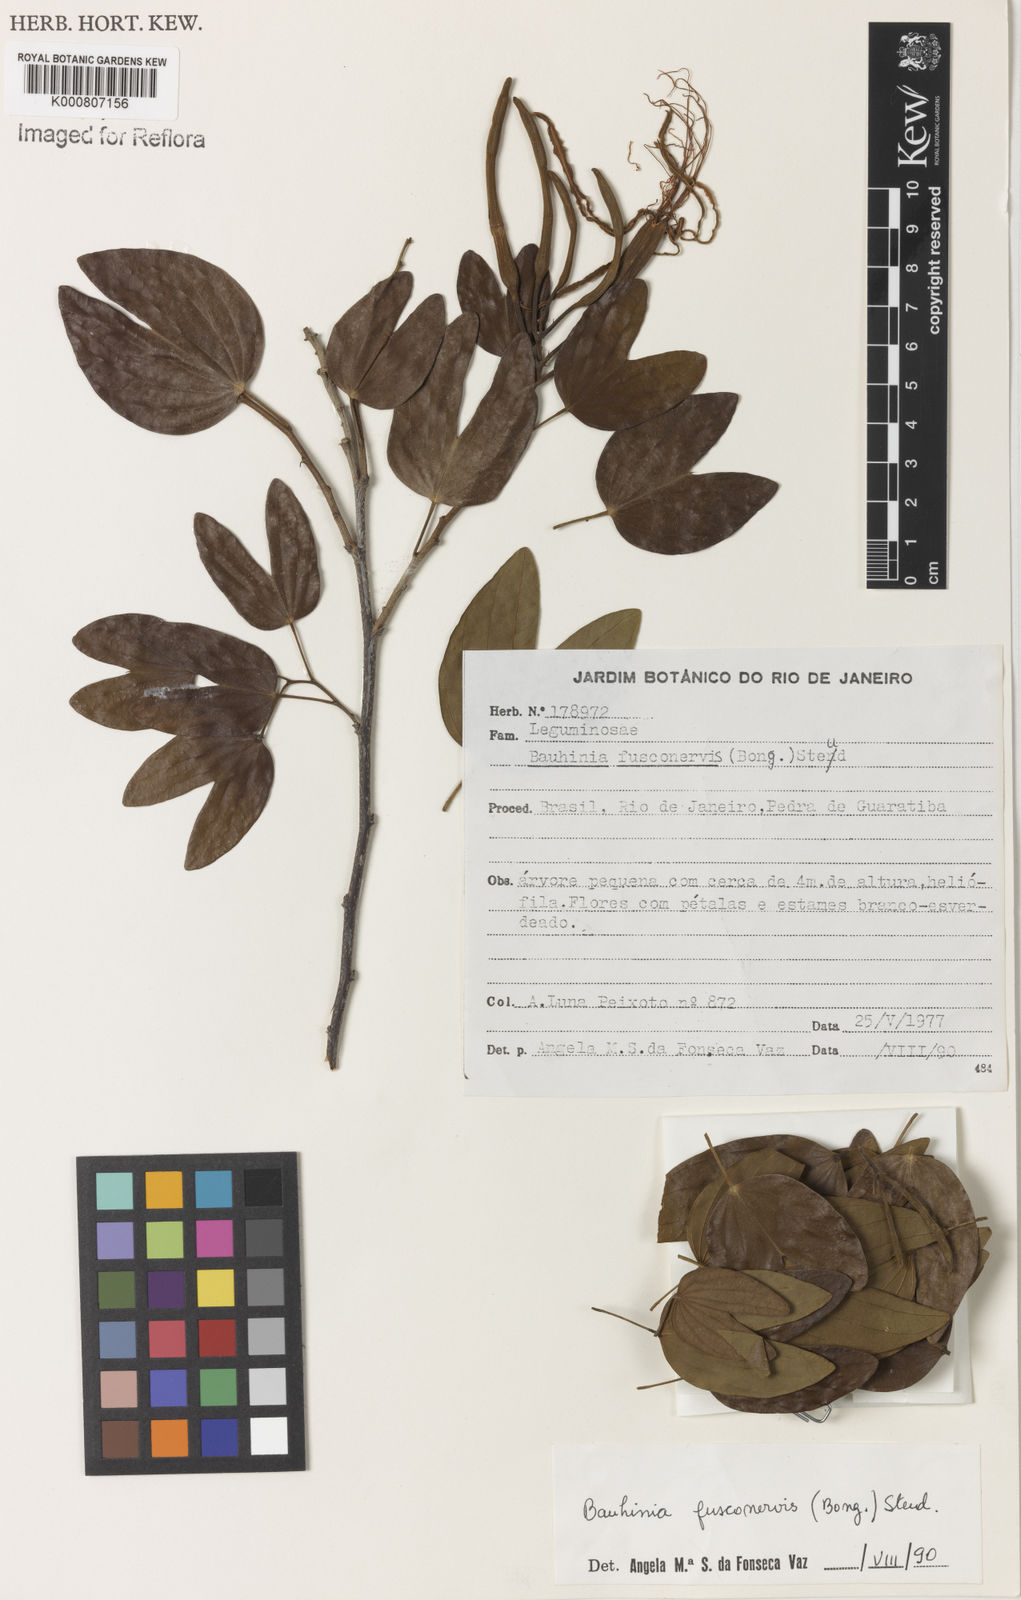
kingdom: Plantae
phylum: Tracheophyta
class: Magnoliopsida
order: Fabales
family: Fabaceae
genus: Bauhinia
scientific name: Bauhinia
